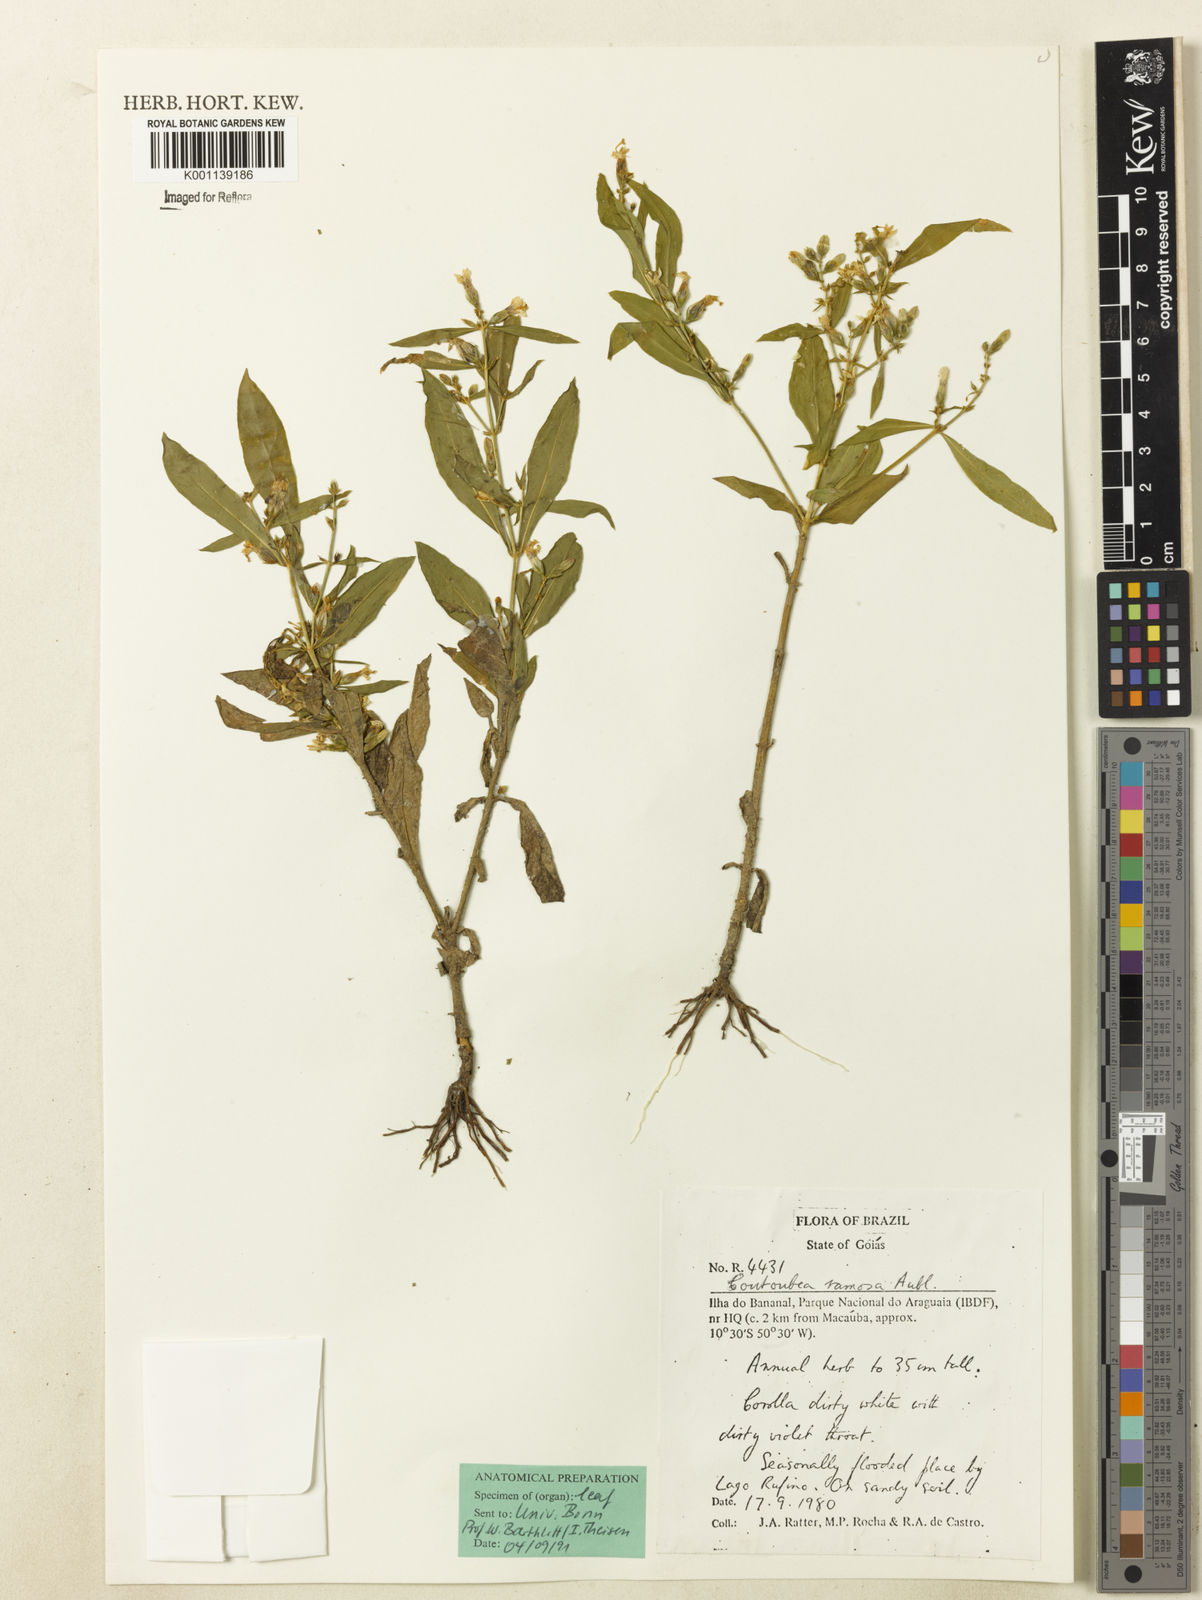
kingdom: Plantae
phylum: Tracheophyta
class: Magnoliopsida
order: Gentianales
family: Gentianaceae
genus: Coutoubea
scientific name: Coutoubea ramosa
